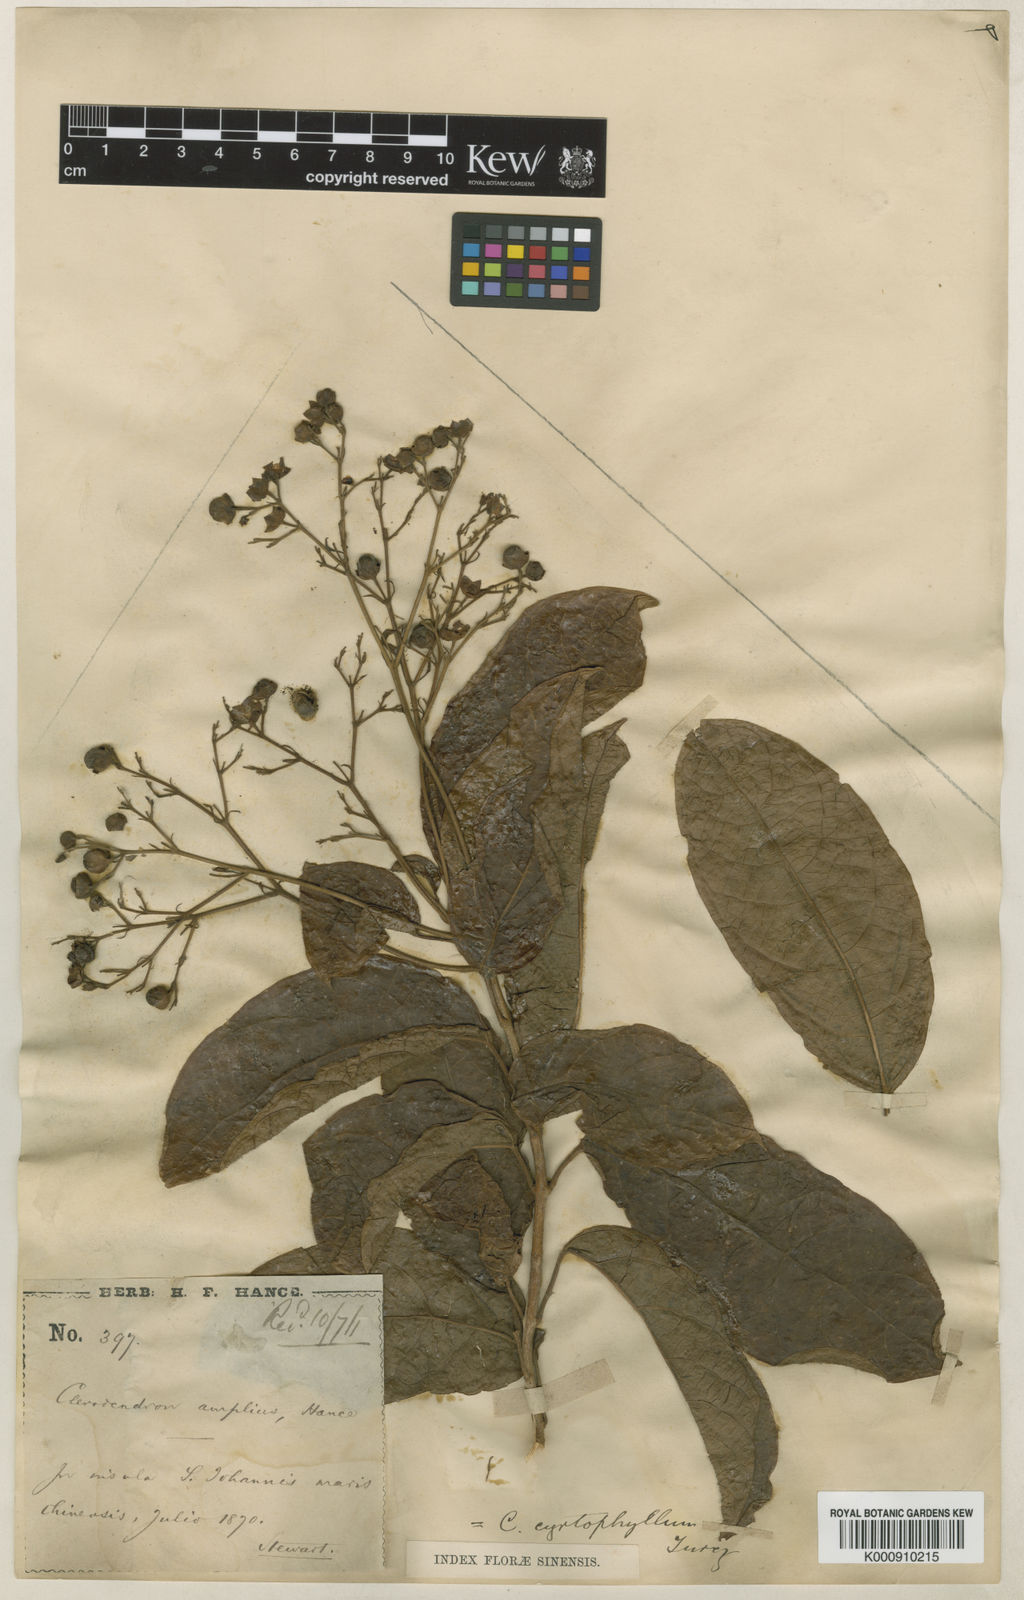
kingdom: Plantae
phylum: Tracheophyta
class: Magnoliopsida
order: Lamiales
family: Lamiaceae
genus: Clerodendrum
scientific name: Clerodendrum cyrtophyllum
